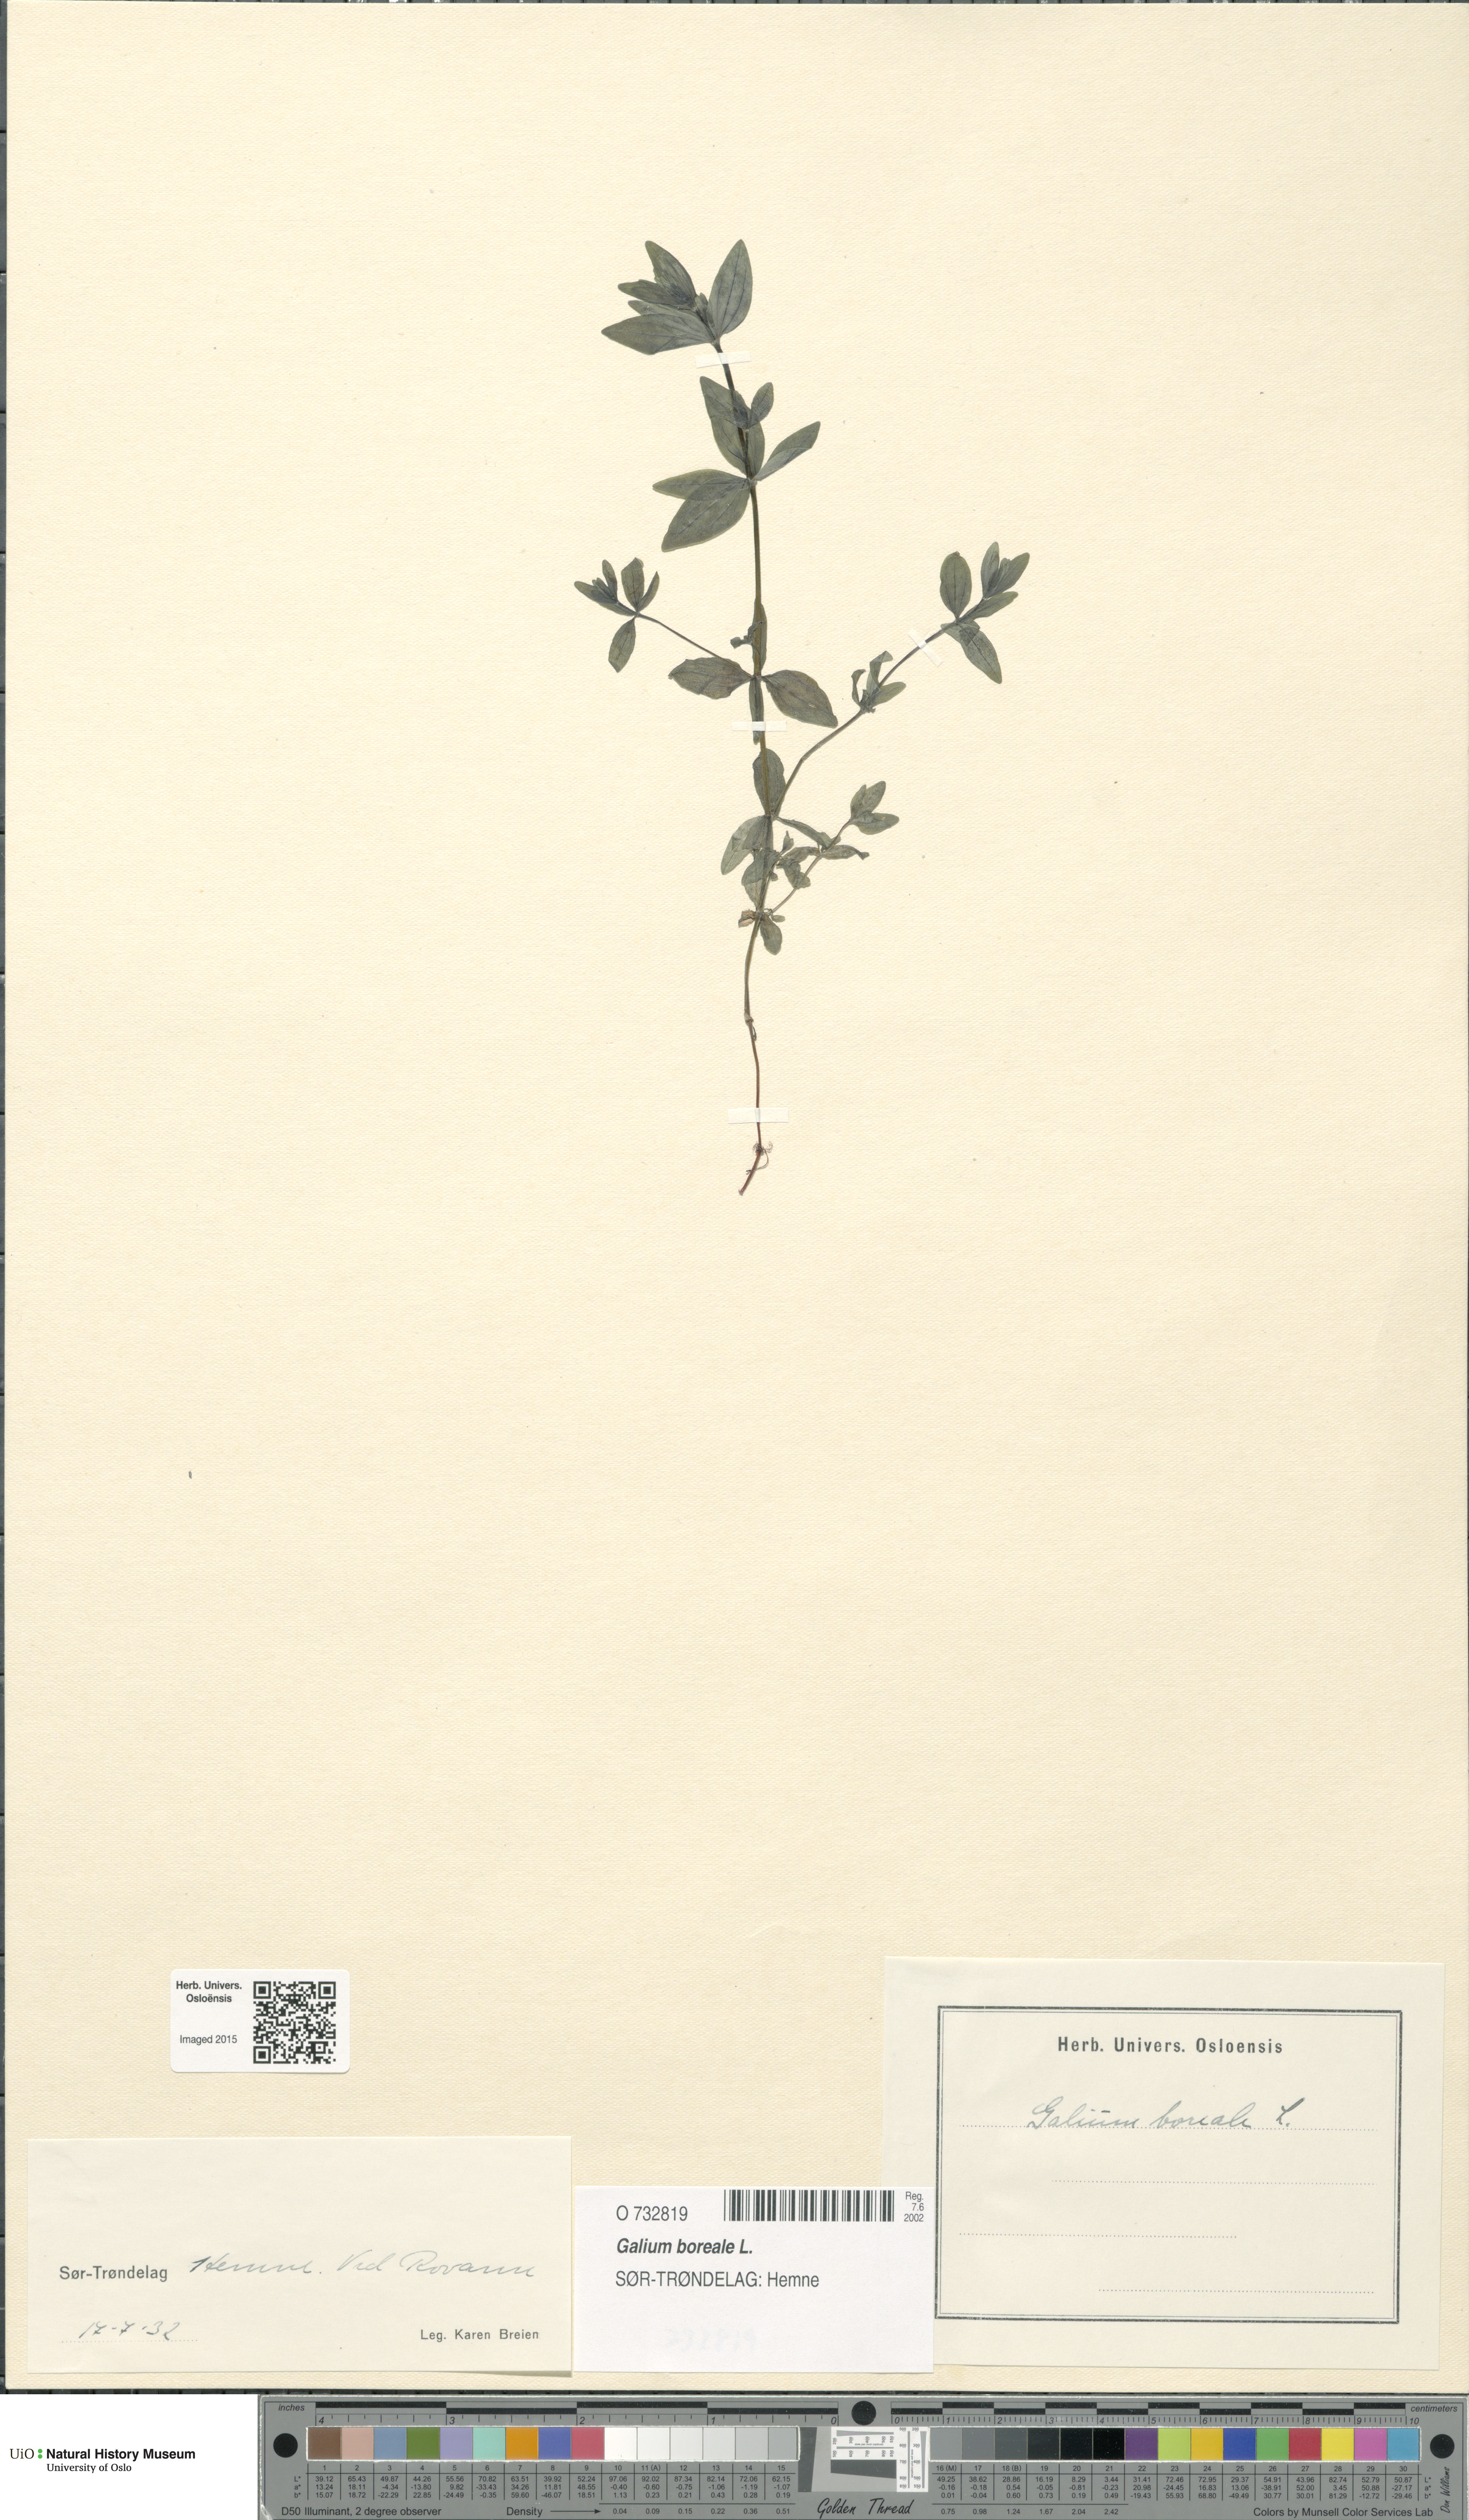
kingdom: Plantae
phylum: Tracheophyta
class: Magnoliopsida
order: Gentianales
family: Rubiaceae
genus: Galium
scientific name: Galium boreale
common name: Northern bedstraw
